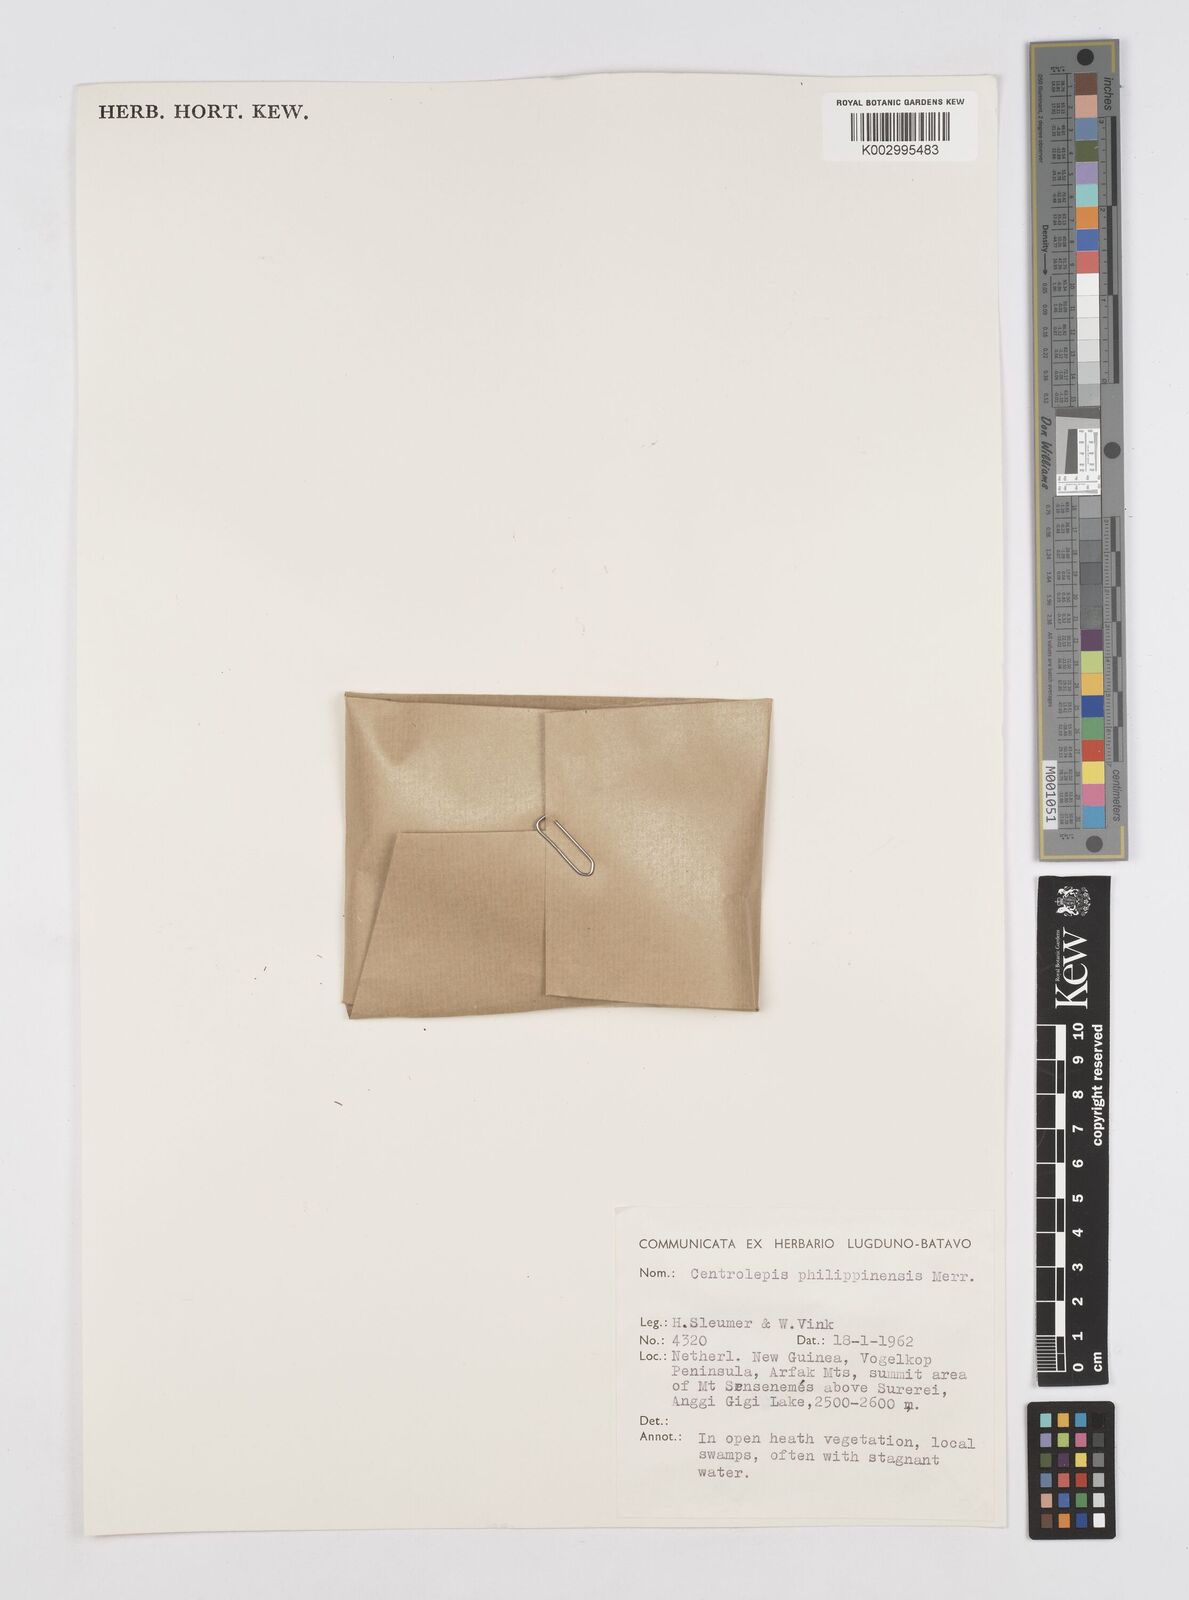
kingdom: Plantae
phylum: Tracheophyta
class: Liliopsida
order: Poales
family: Restionaceae
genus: Centrolepis
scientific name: Centrolepis philippinensis
